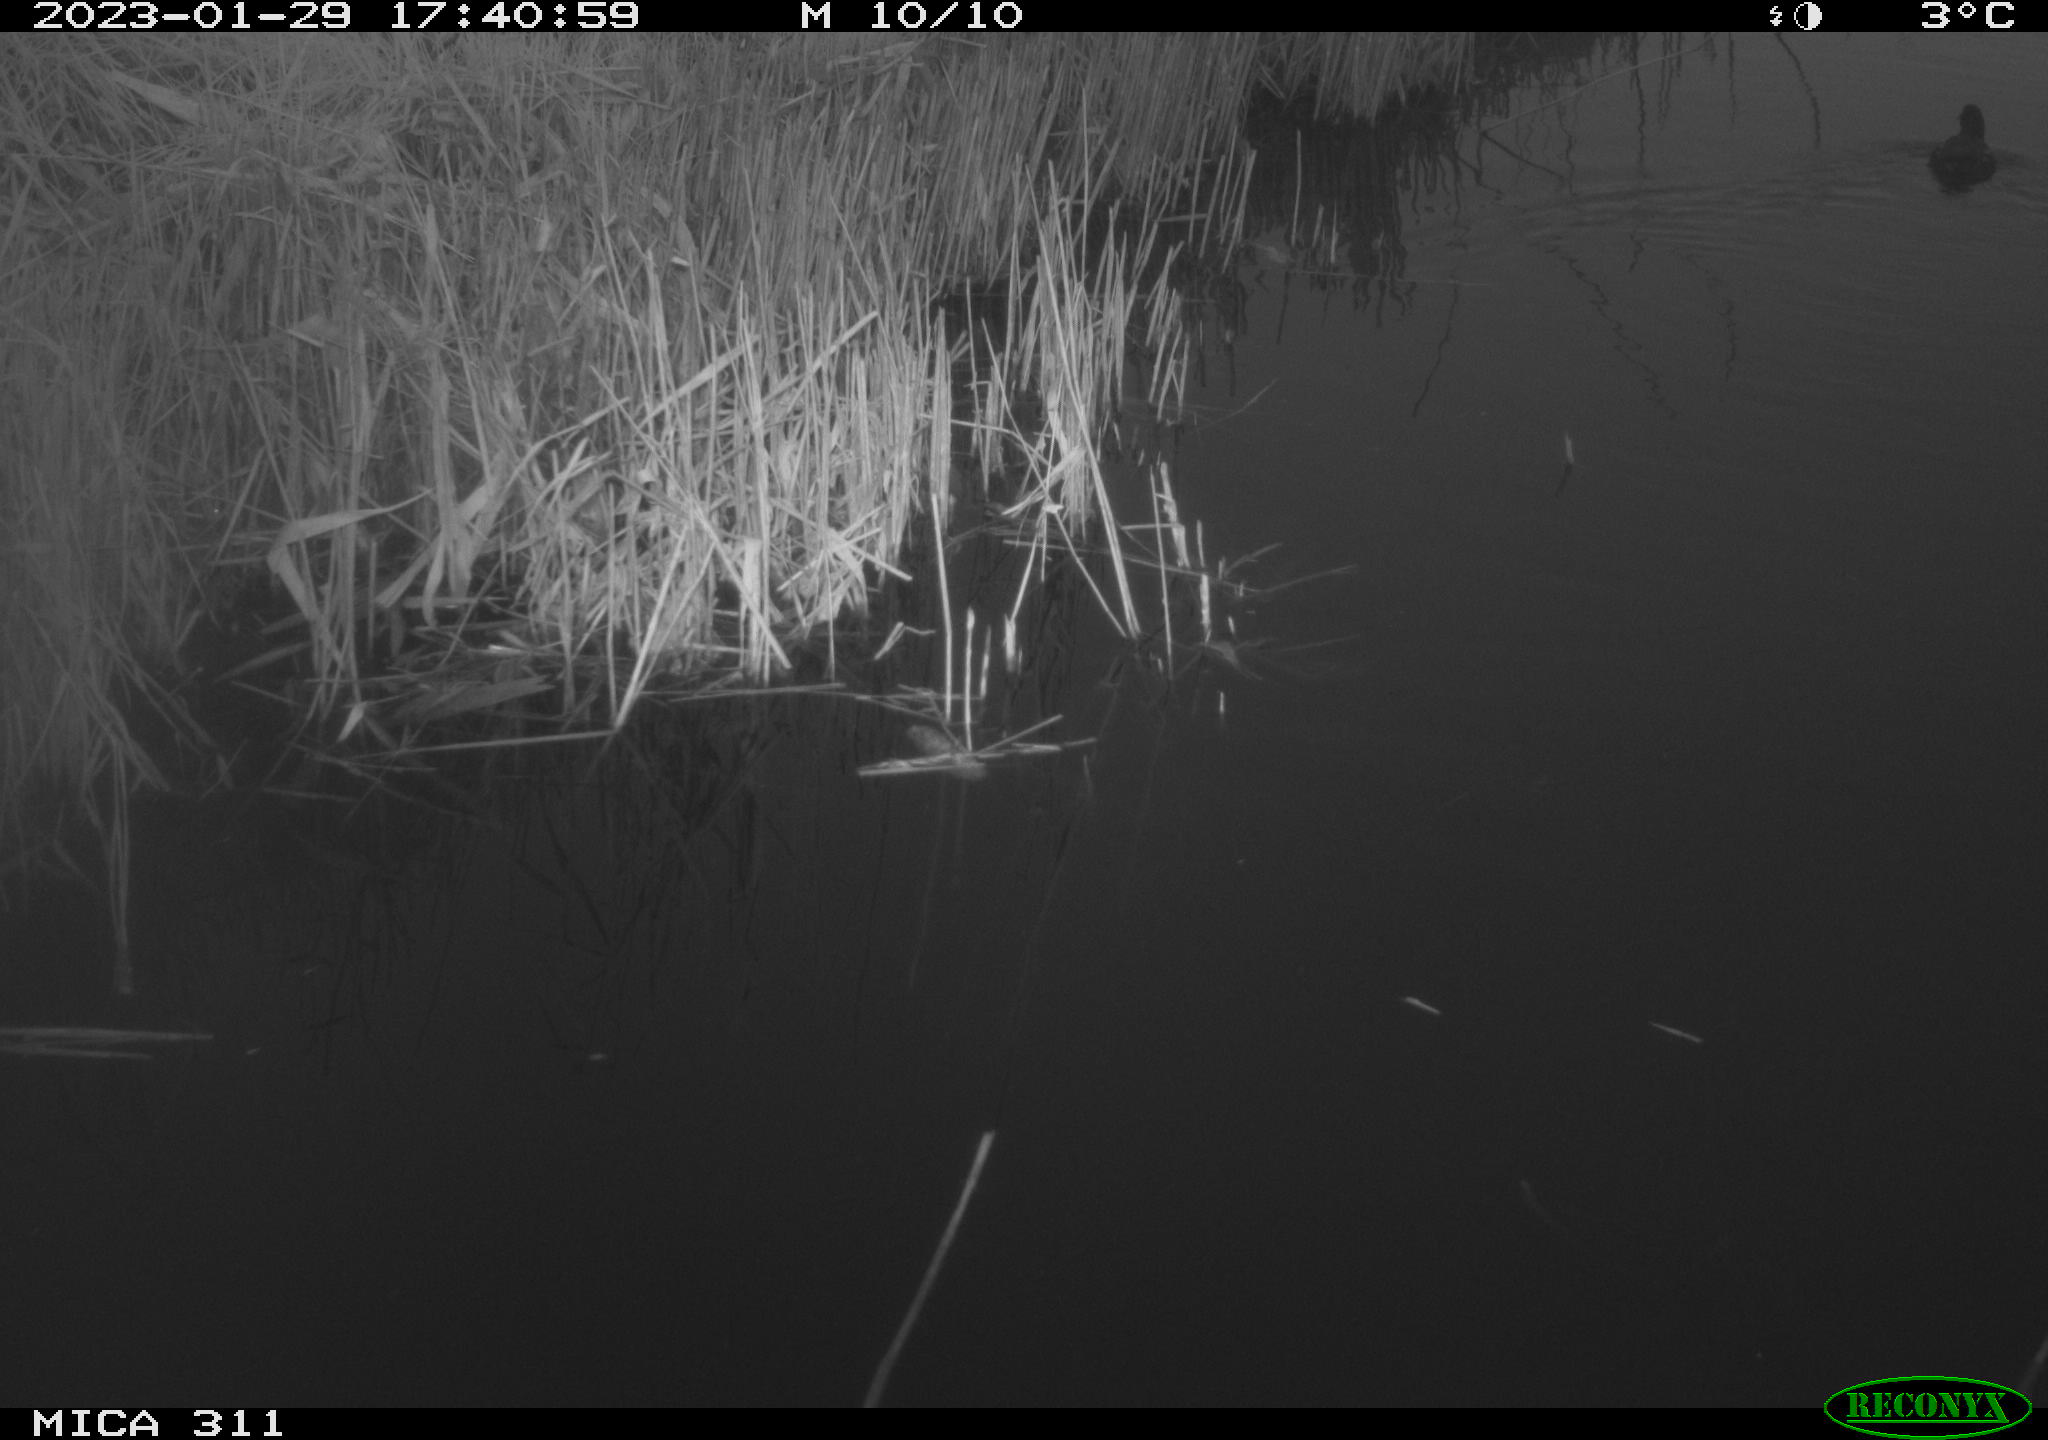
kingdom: Animalia
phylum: Chordata
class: Aves
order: Gruiformes
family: Rallidae
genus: Gallinula
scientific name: Gallinula chloropus
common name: Common moorhen
